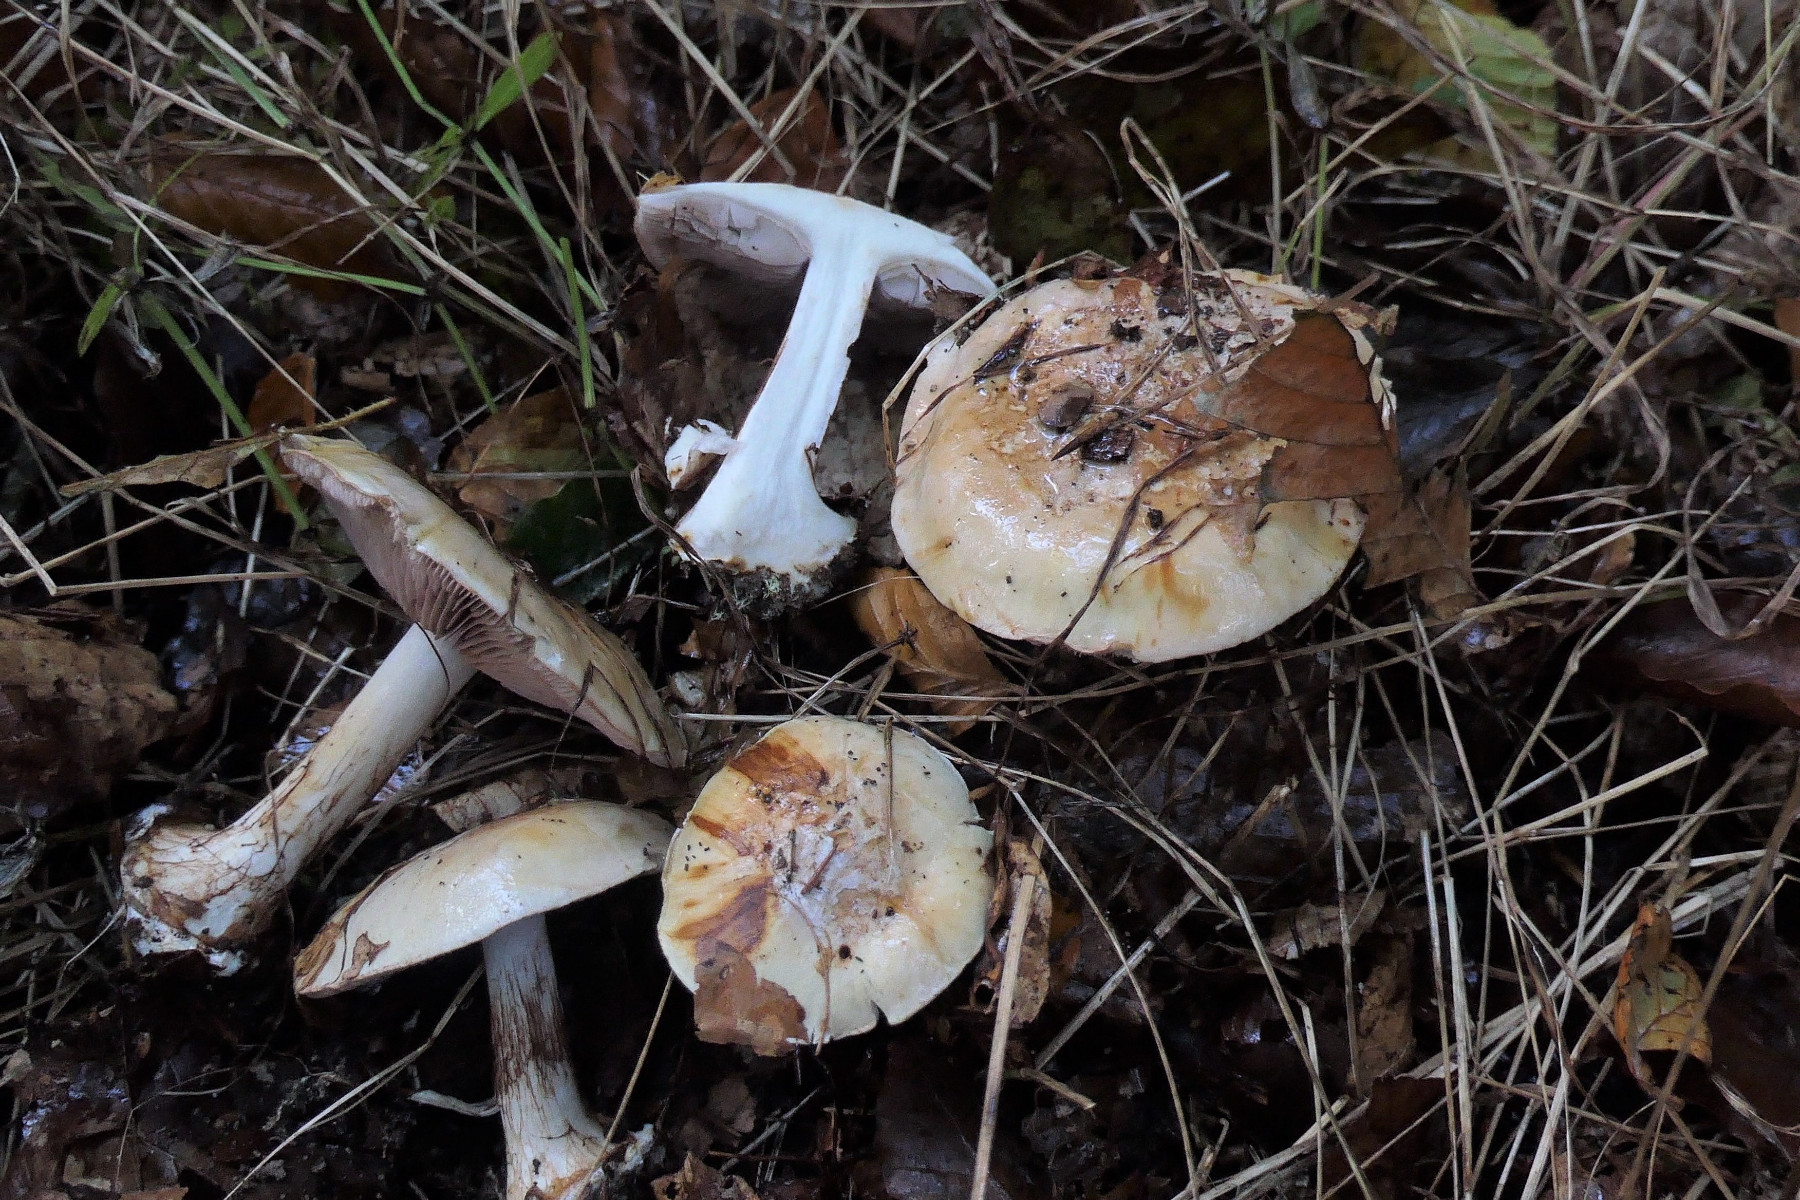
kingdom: Fungi
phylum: Basidiomycota
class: Agaricomycetes
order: Agaricales
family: Cortinariaceae
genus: Calonarius
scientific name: Calonarius platypus
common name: platfodet slørhat
